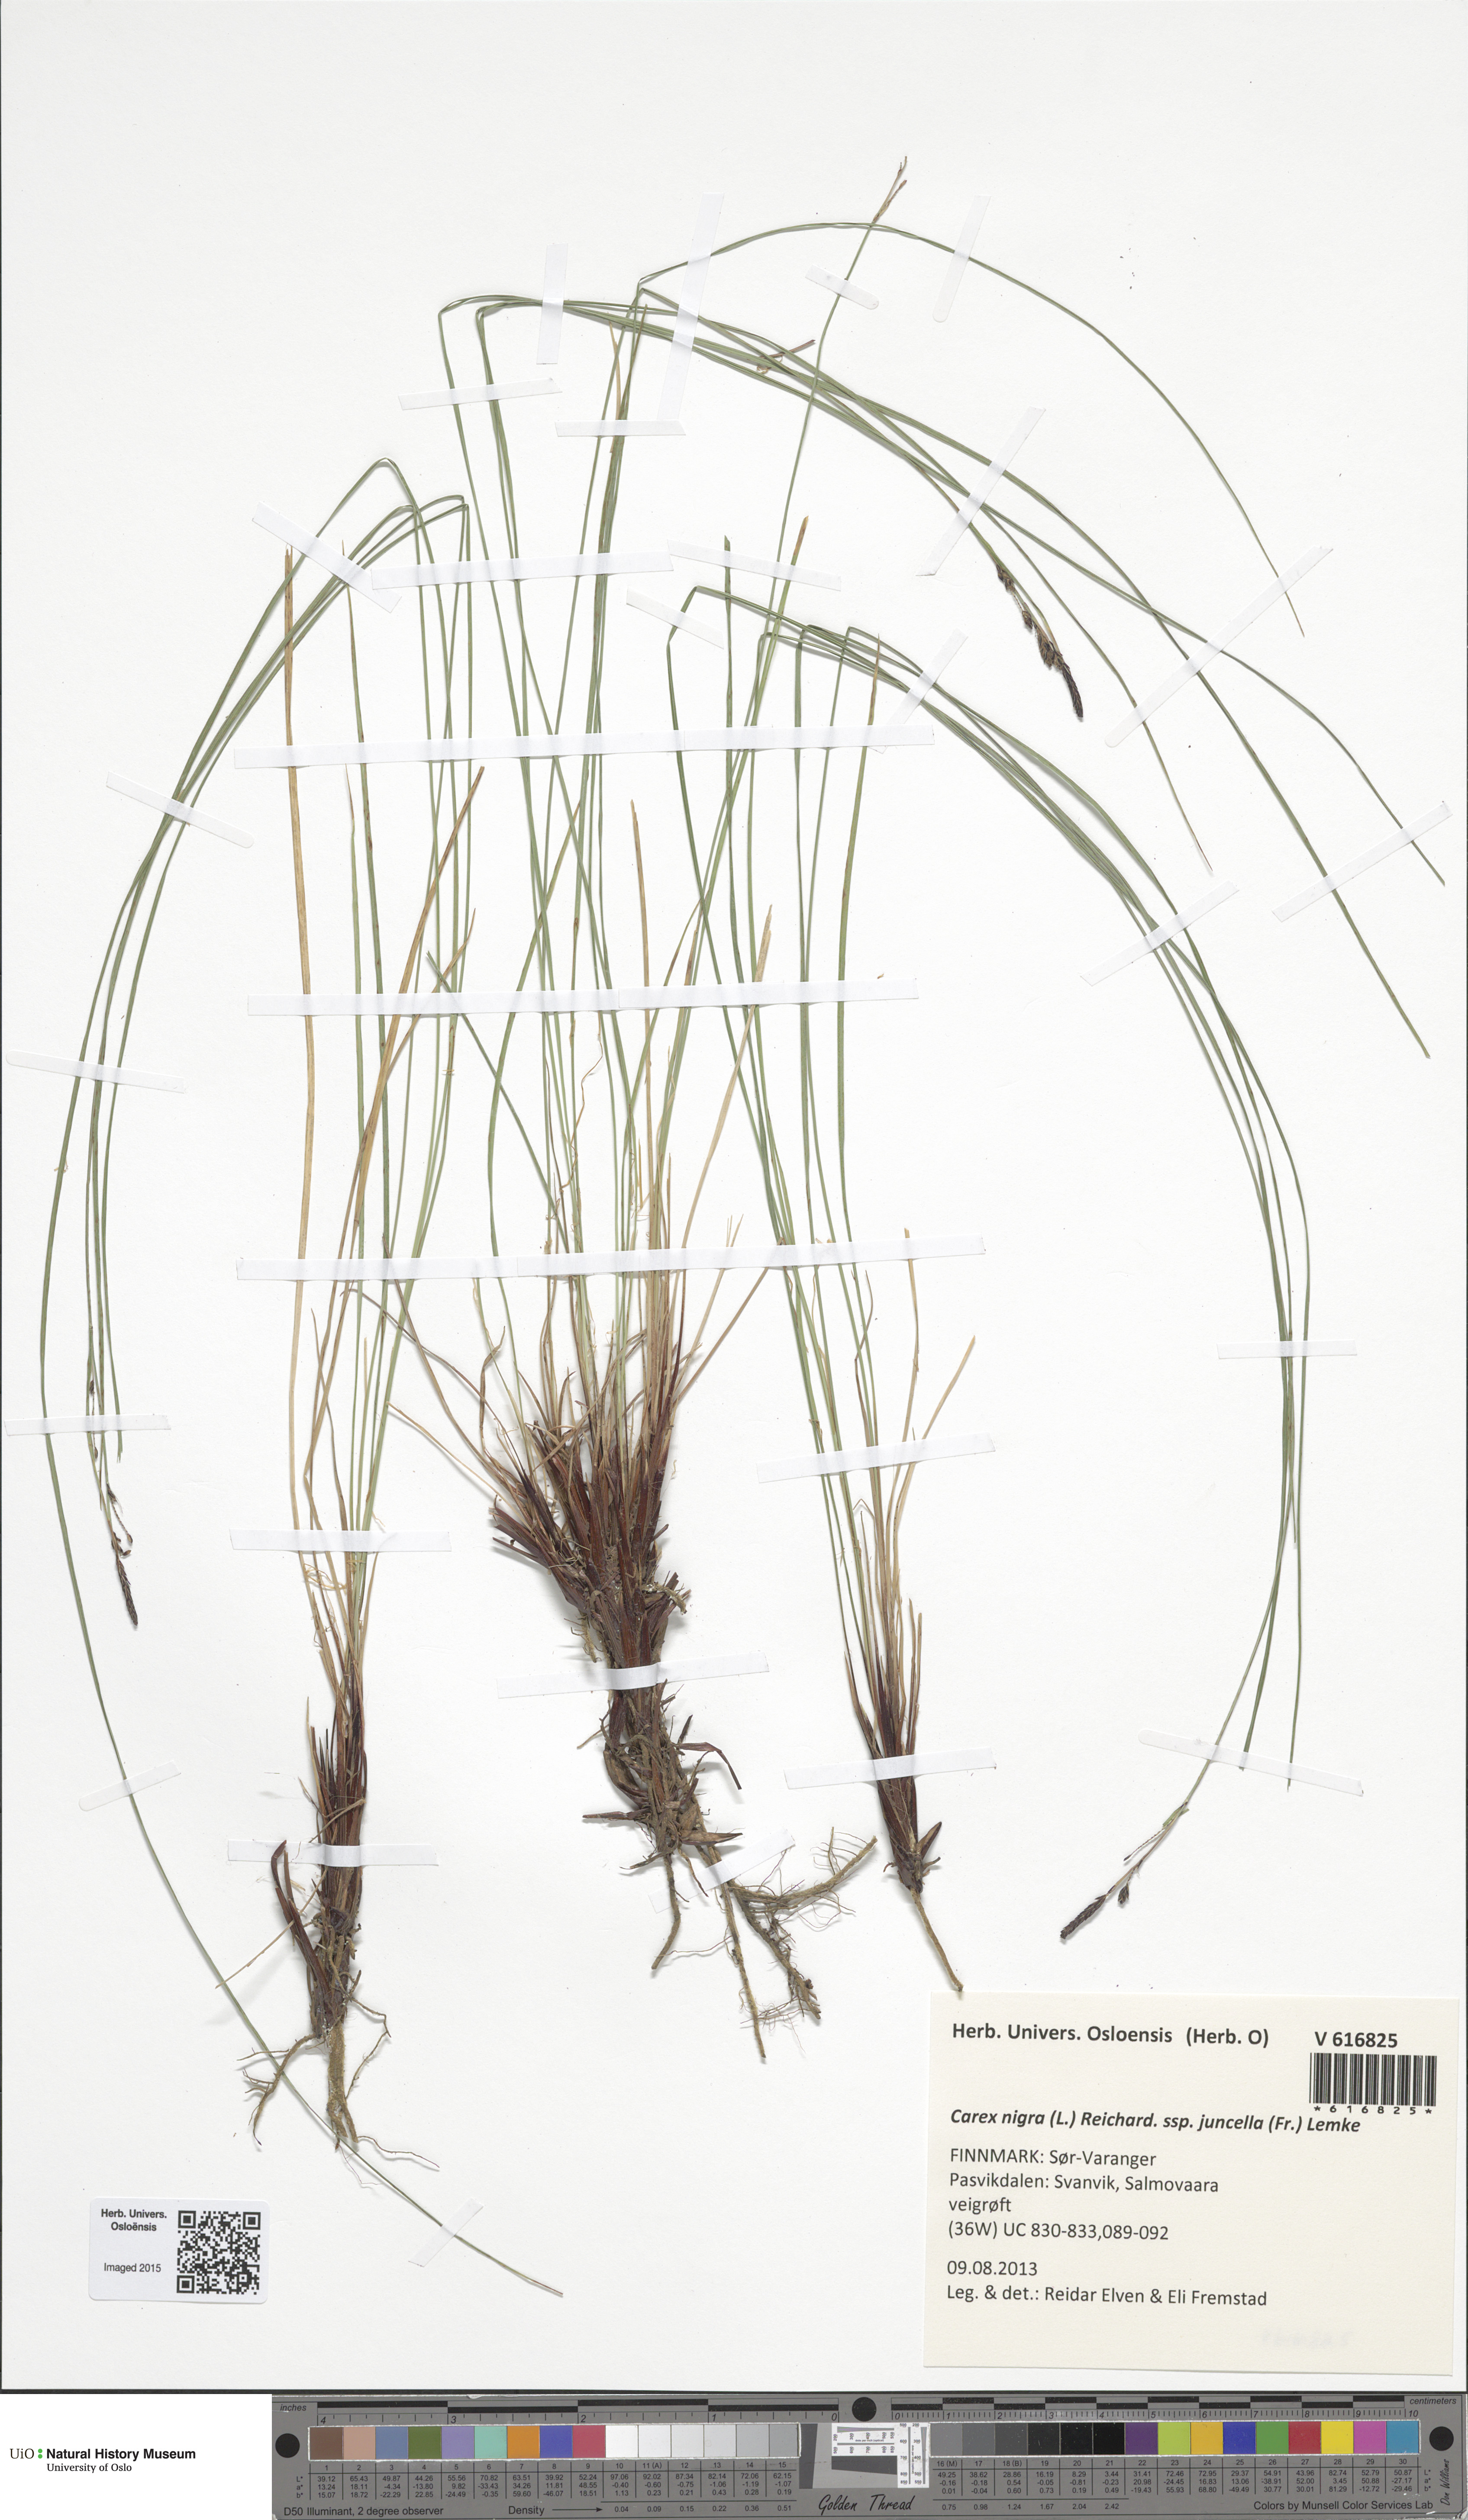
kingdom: Plantae
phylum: Tracheophyta
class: Liliopsida
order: Poales
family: Cyperaceae
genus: Carex
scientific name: Carex nigra
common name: Common sedge
